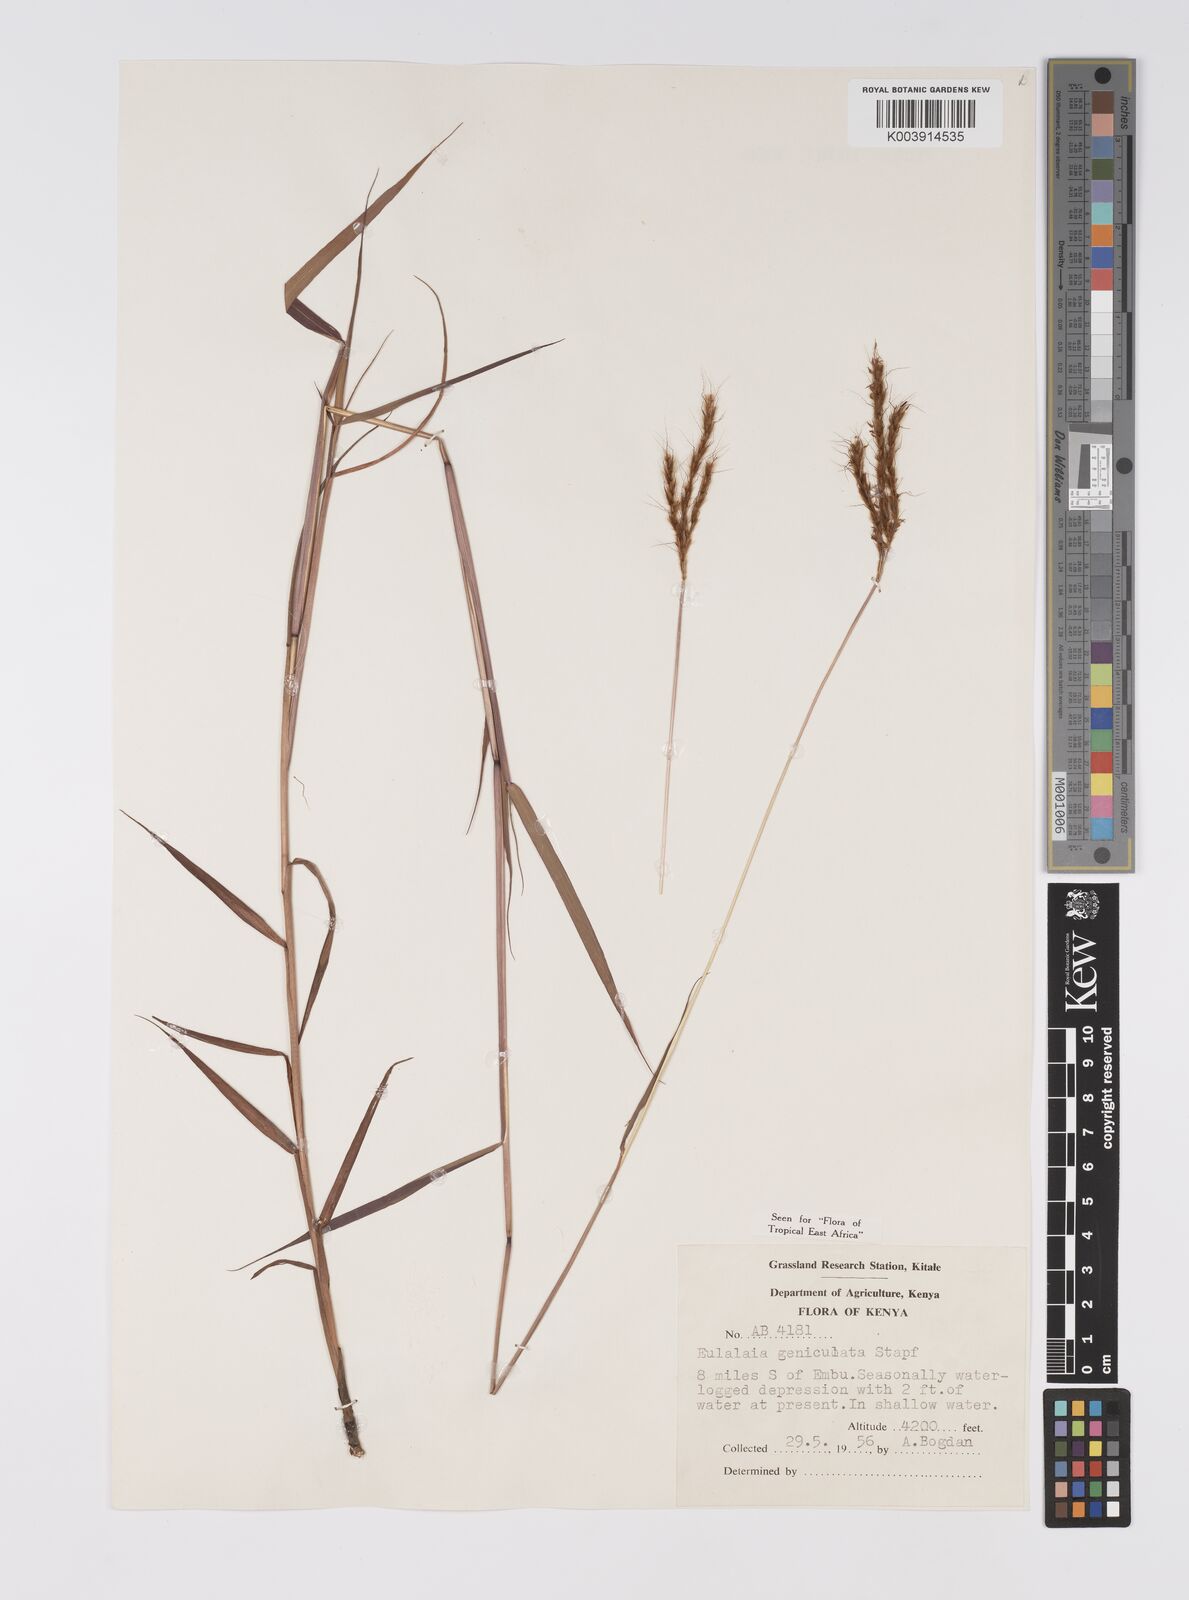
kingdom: Plantae
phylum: Tracheophyta
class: Liliopsida
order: Poales
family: Poaceae
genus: Eulalia
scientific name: Eulalia aurea
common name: Silky browntop
